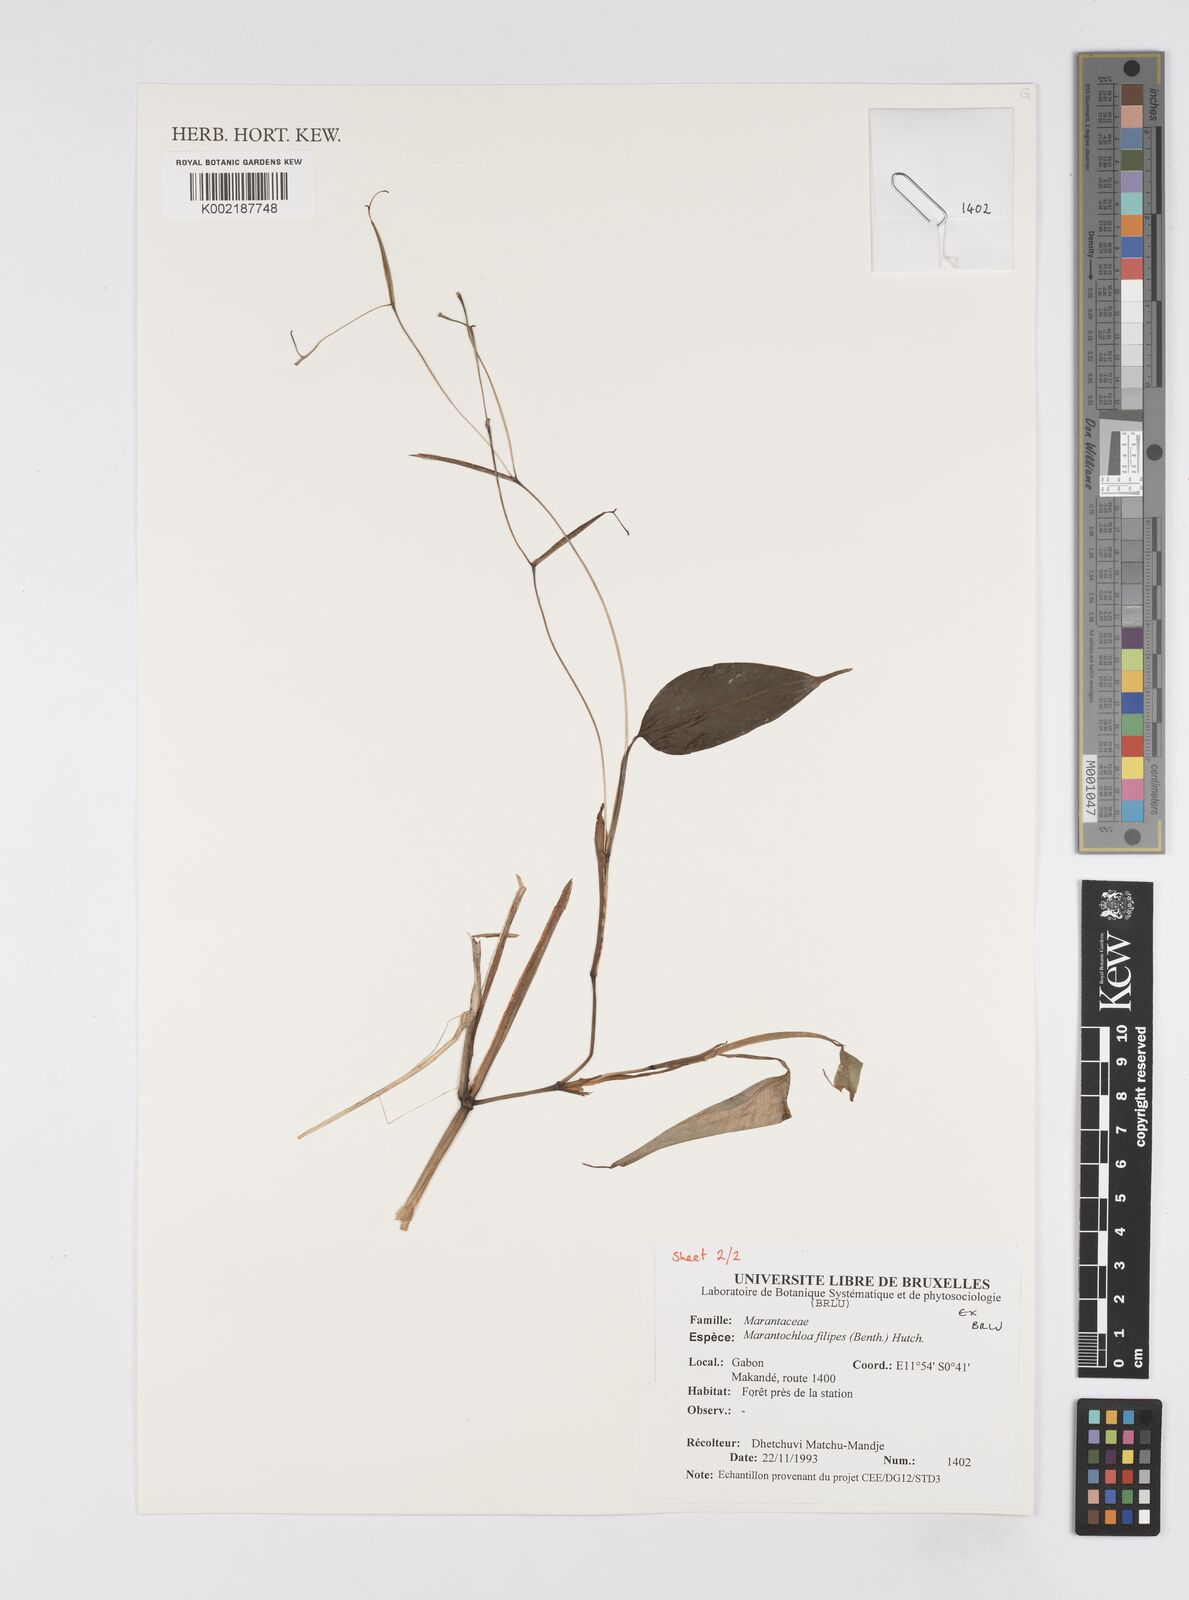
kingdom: Plantae
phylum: Tracheophyta
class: Liliopsida
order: Zingiberales
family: Marantaceae
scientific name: Marantaceae
